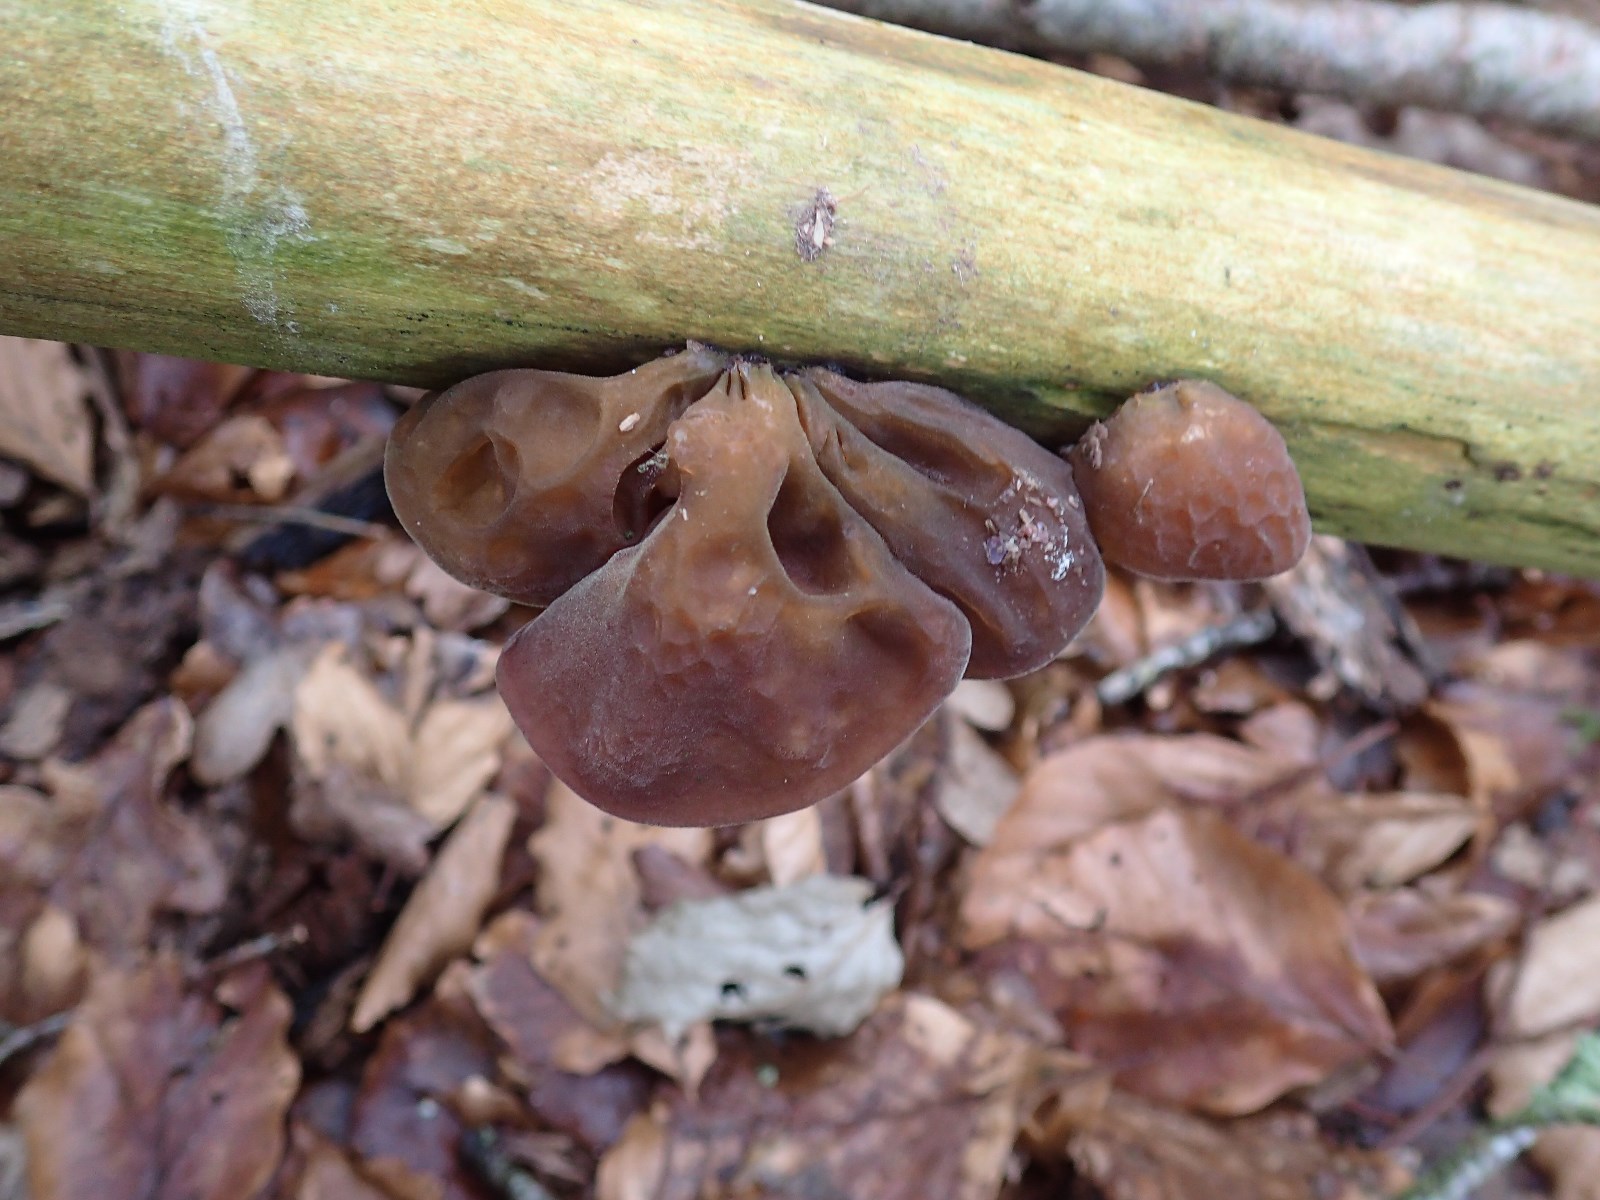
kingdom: Fungi
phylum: Basidiomycota
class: Agaricomycetes
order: Auriculariales
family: Auriculariaceae
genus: Auricularia
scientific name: Auricularia auricula-judae
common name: almindelig judasøre
